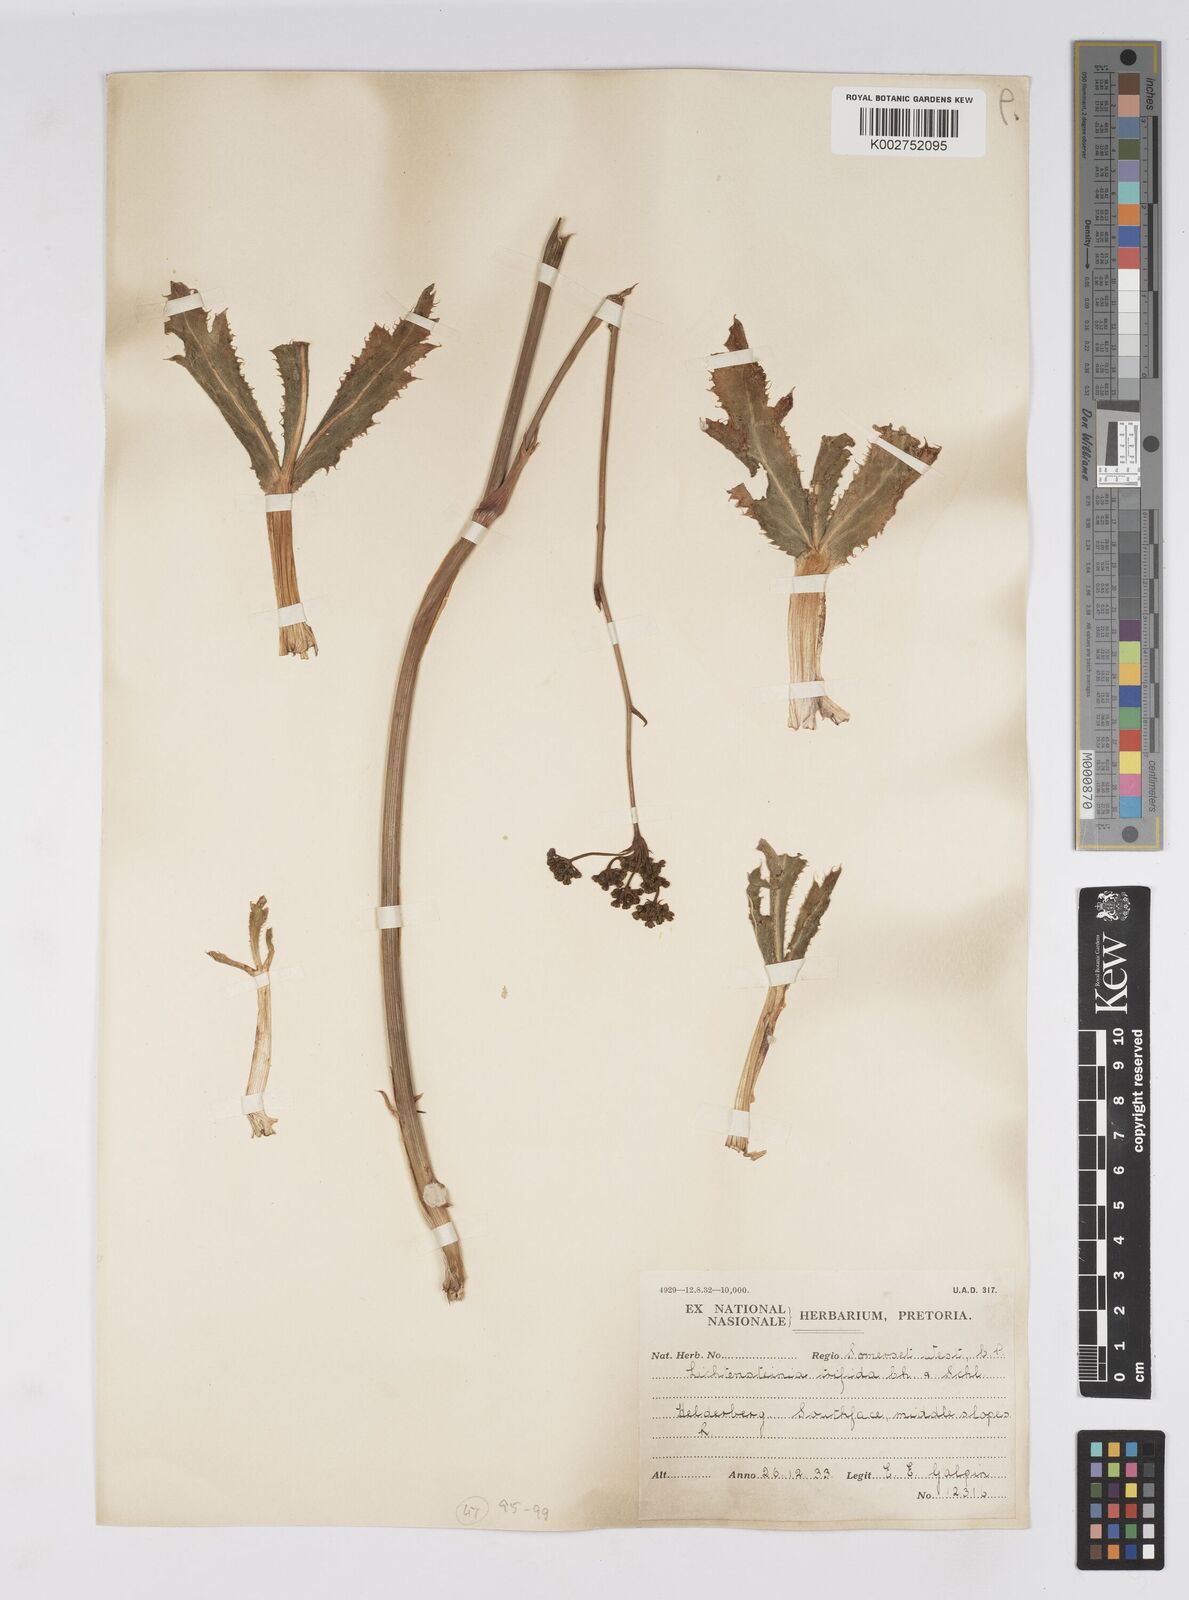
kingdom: Plantae
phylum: Tracheophyta
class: Magnoliopsida
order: Apiales
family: Apiaceae
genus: Lichtensteinia
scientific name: Lichtensteinia trifida
